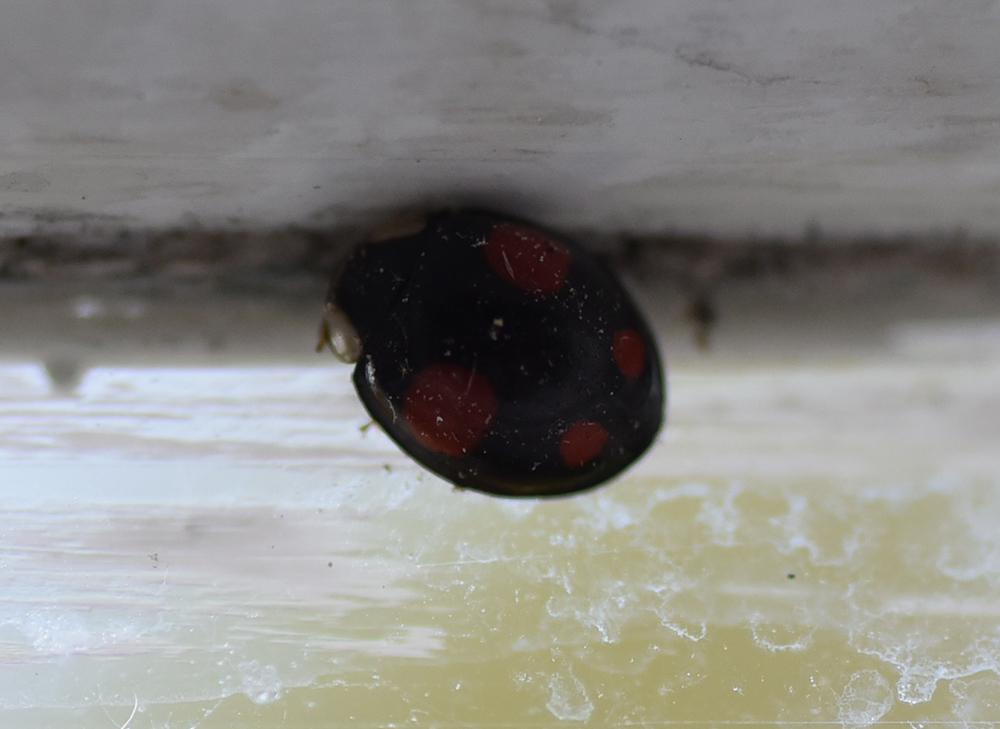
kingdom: Animalia
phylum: Arthropoda
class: Insecta
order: Coleoptera
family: Coccinellidae
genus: Adalia
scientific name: Adalia bipunctata
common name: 2-spot ladybird
